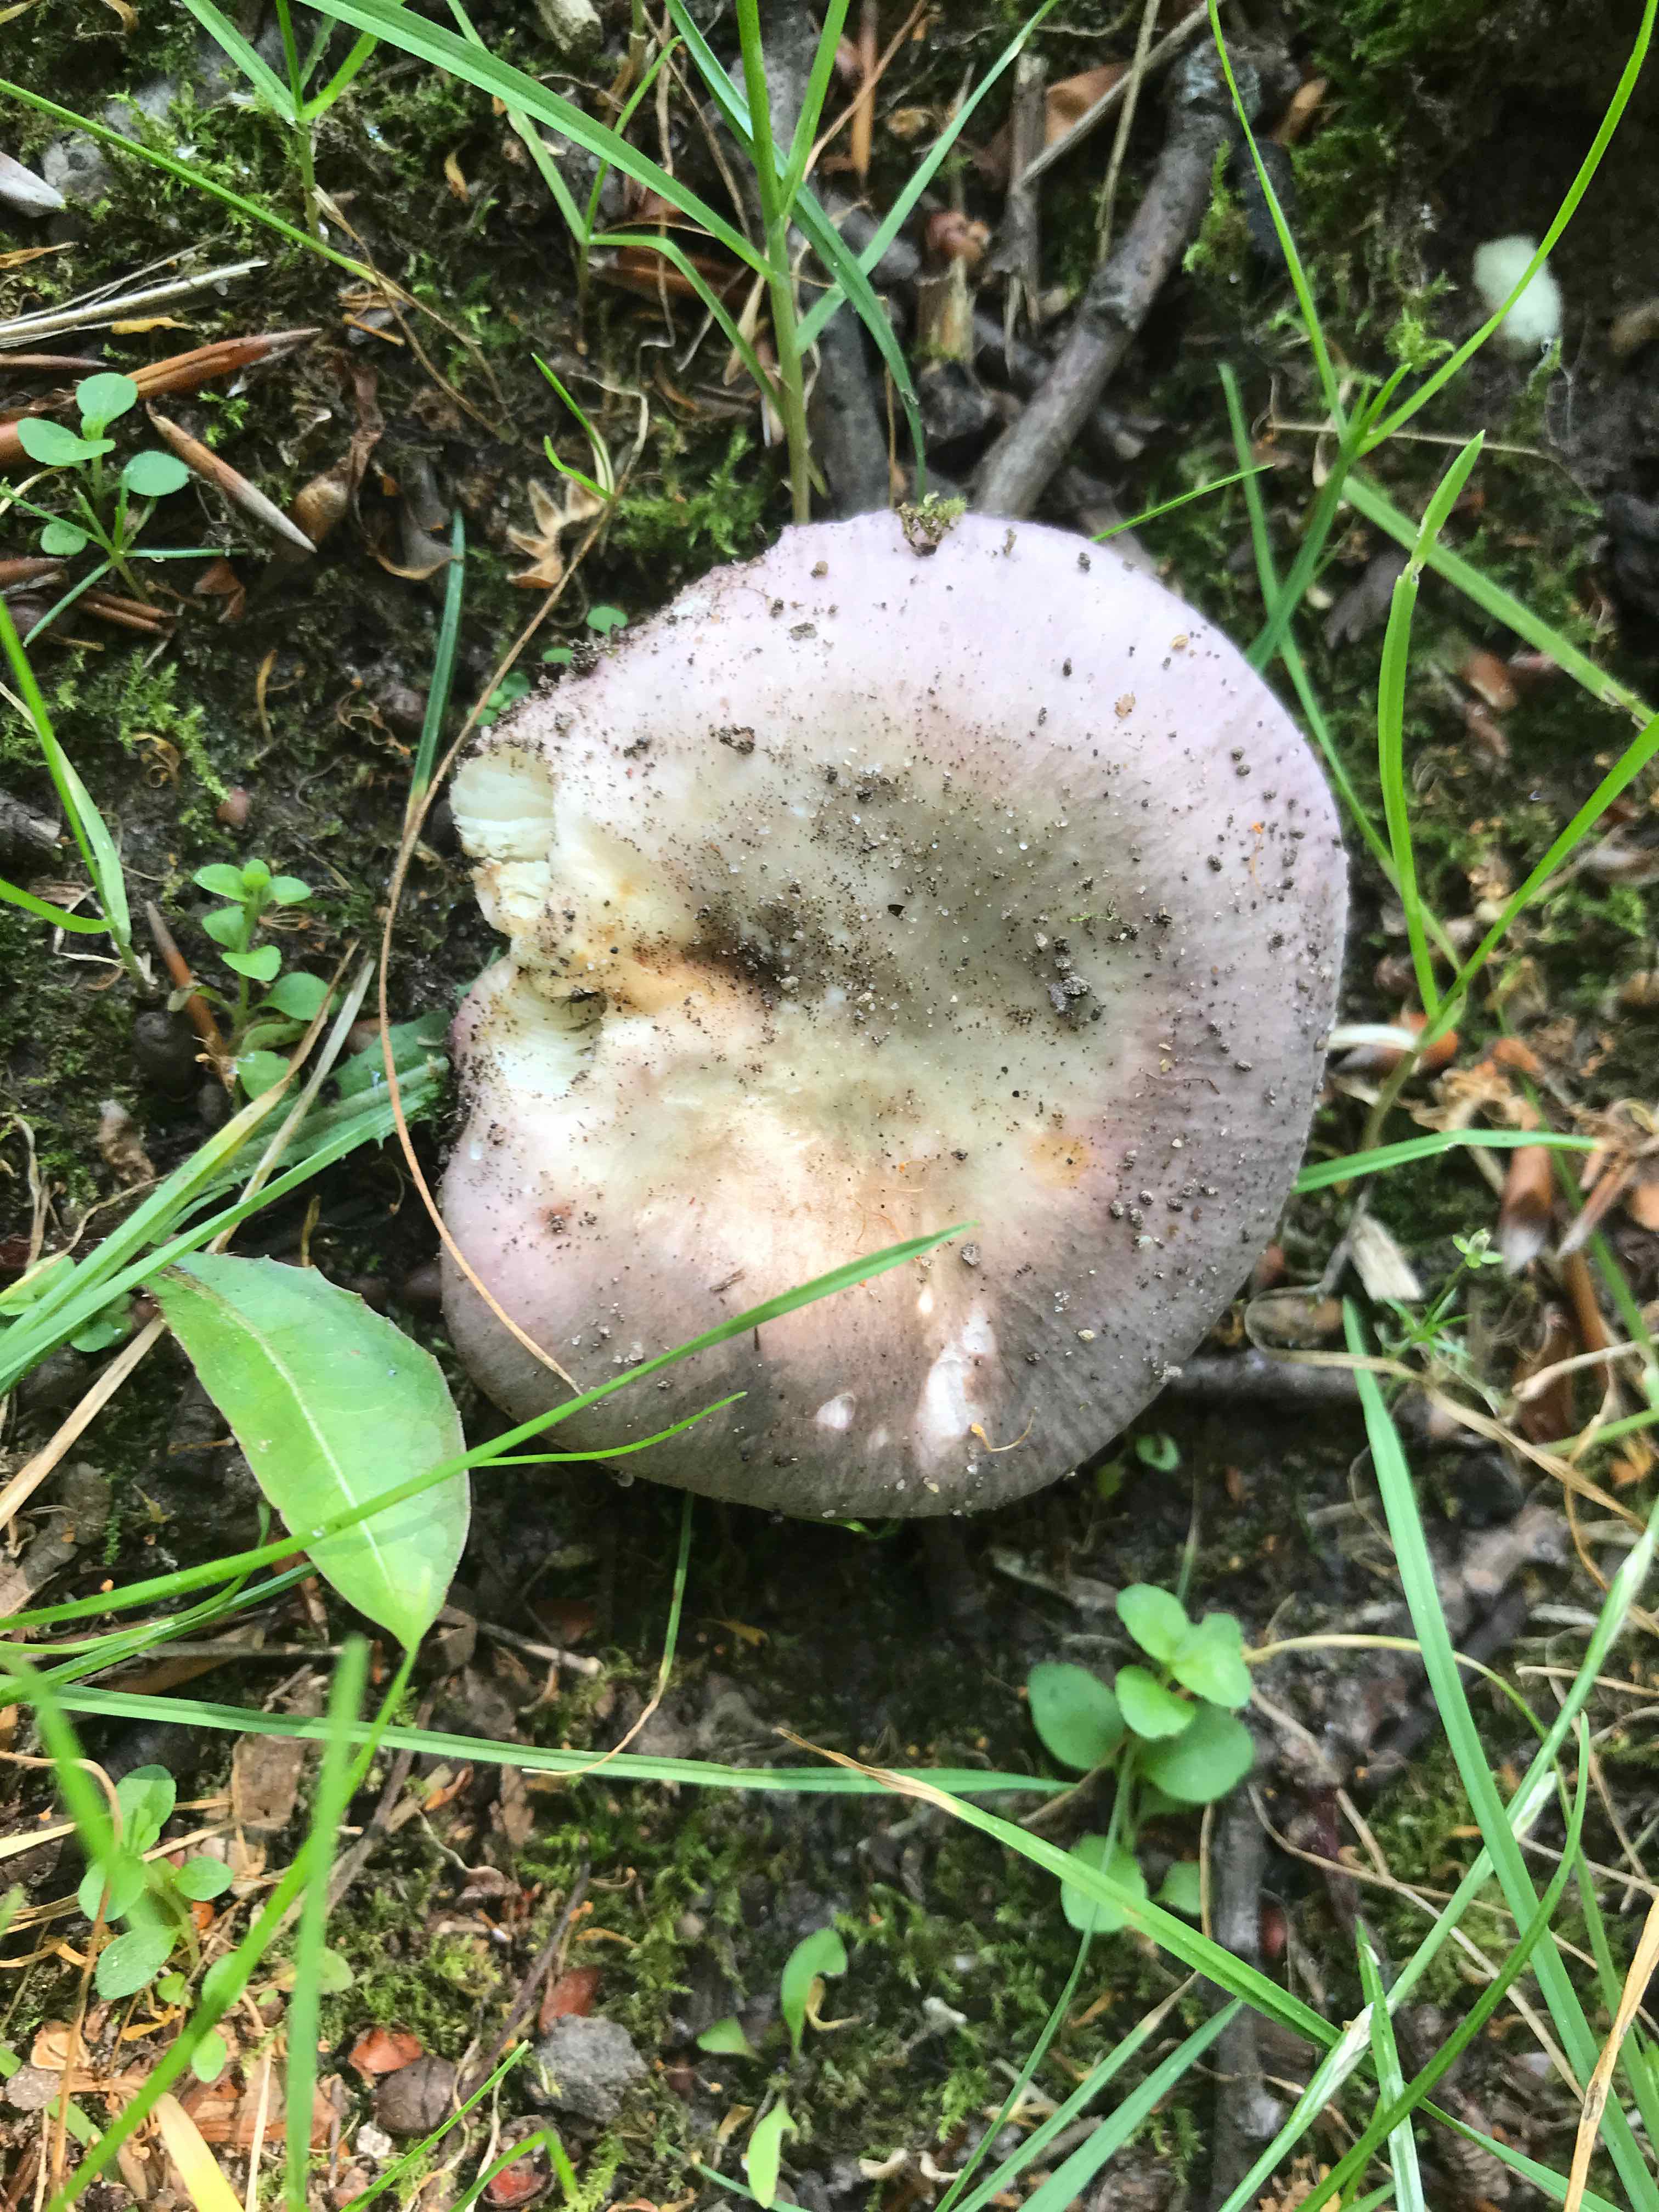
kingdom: Fungi
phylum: Basidiomycota
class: Agaricomycetes
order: Russulales
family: Russulaceae
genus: Russula
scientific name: Russula cyanoxantha
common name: broget skørhat
